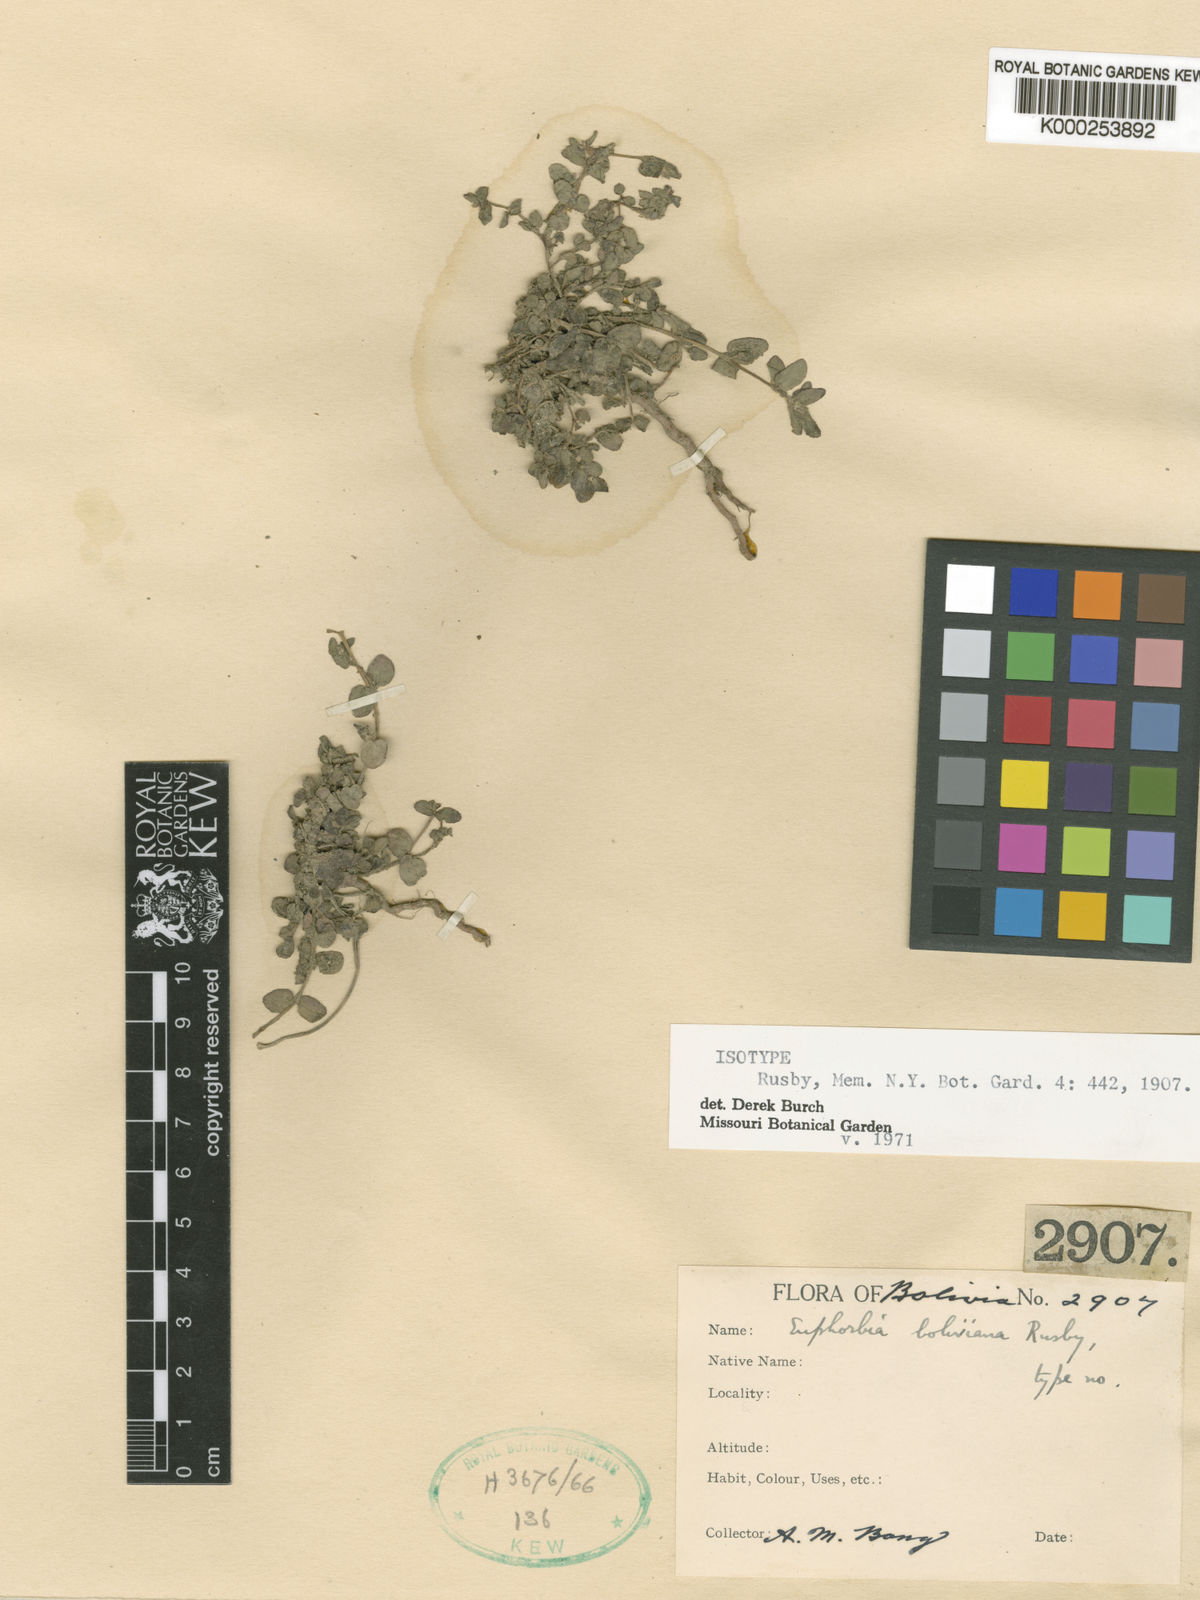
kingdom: Plantae
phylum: Tracheophyta
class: Magnoliopsida
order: Malpighiales
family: Euphorbiaceae
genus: Euphorbia
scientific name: Euphorbia hypericifolia
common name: Graceful sandmat
